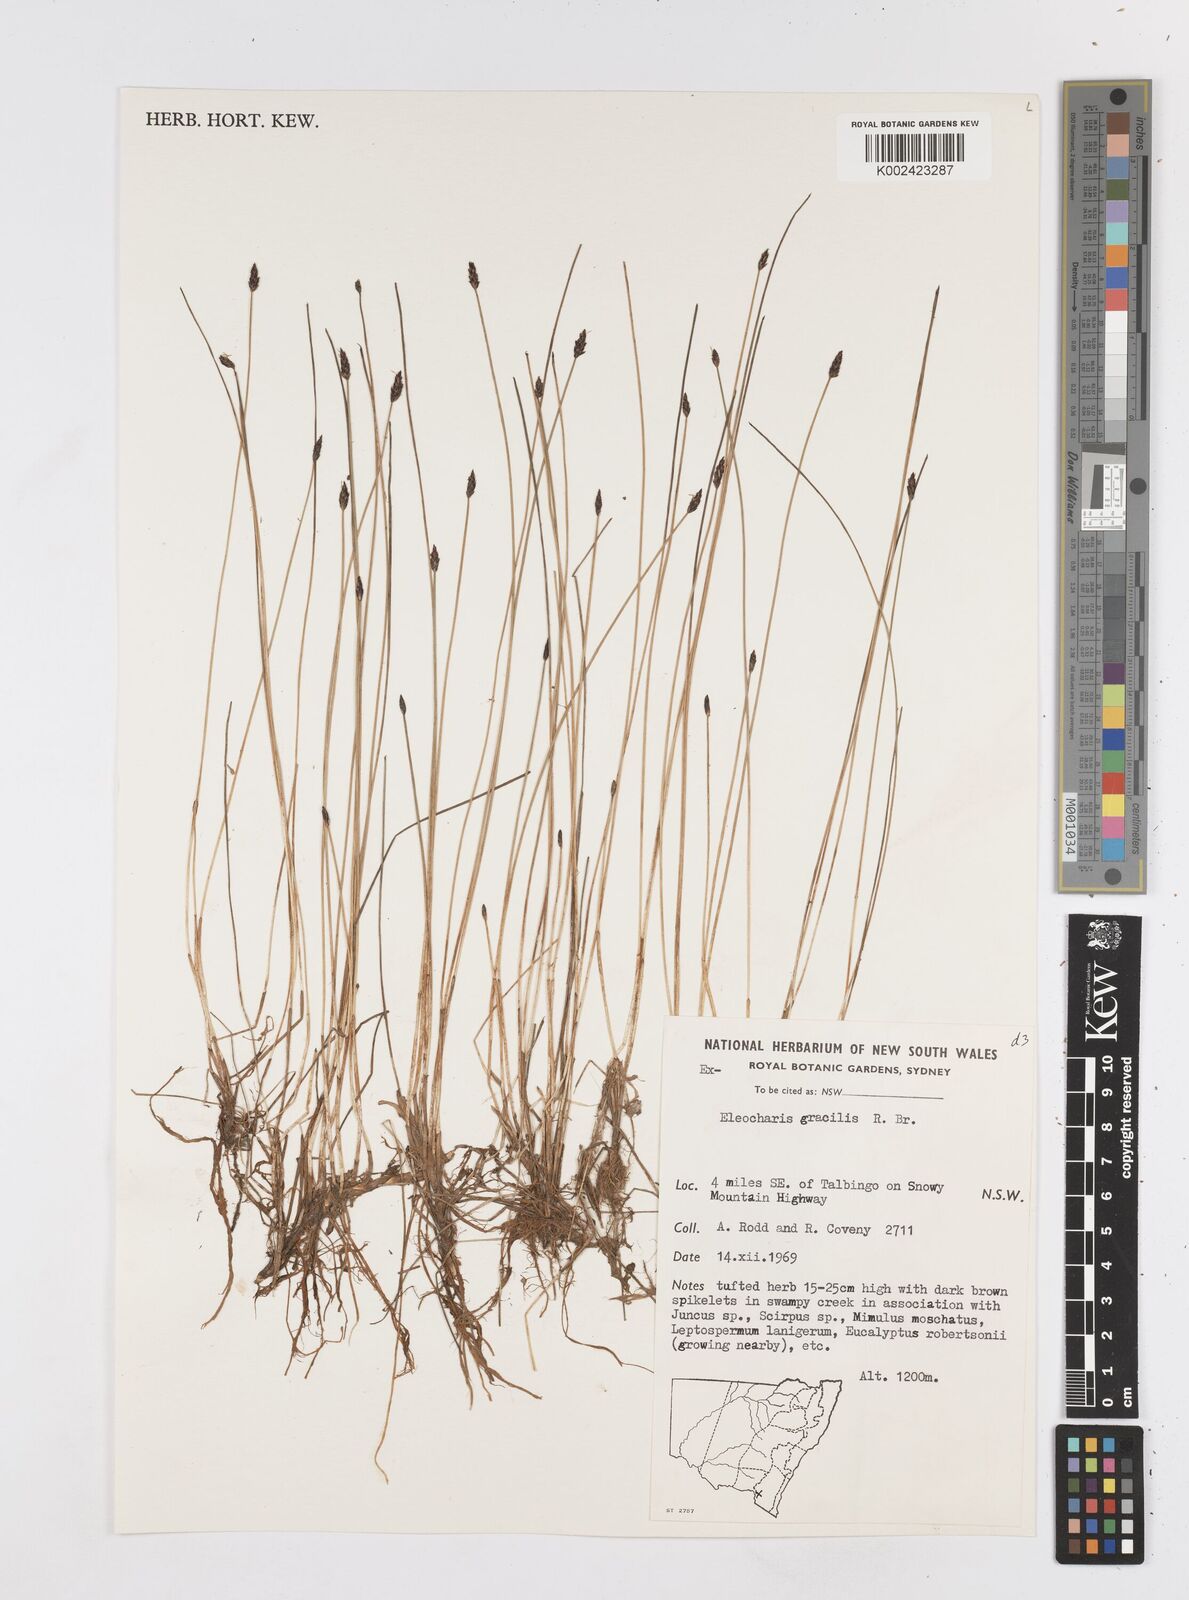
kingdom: Plantae
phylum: Tracheophyta
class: Liliopsida
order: Poales
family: Cyperaceae
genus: Eleocharis
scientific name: Eleocharis multicaulis
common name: Many-stalked spike-rush
